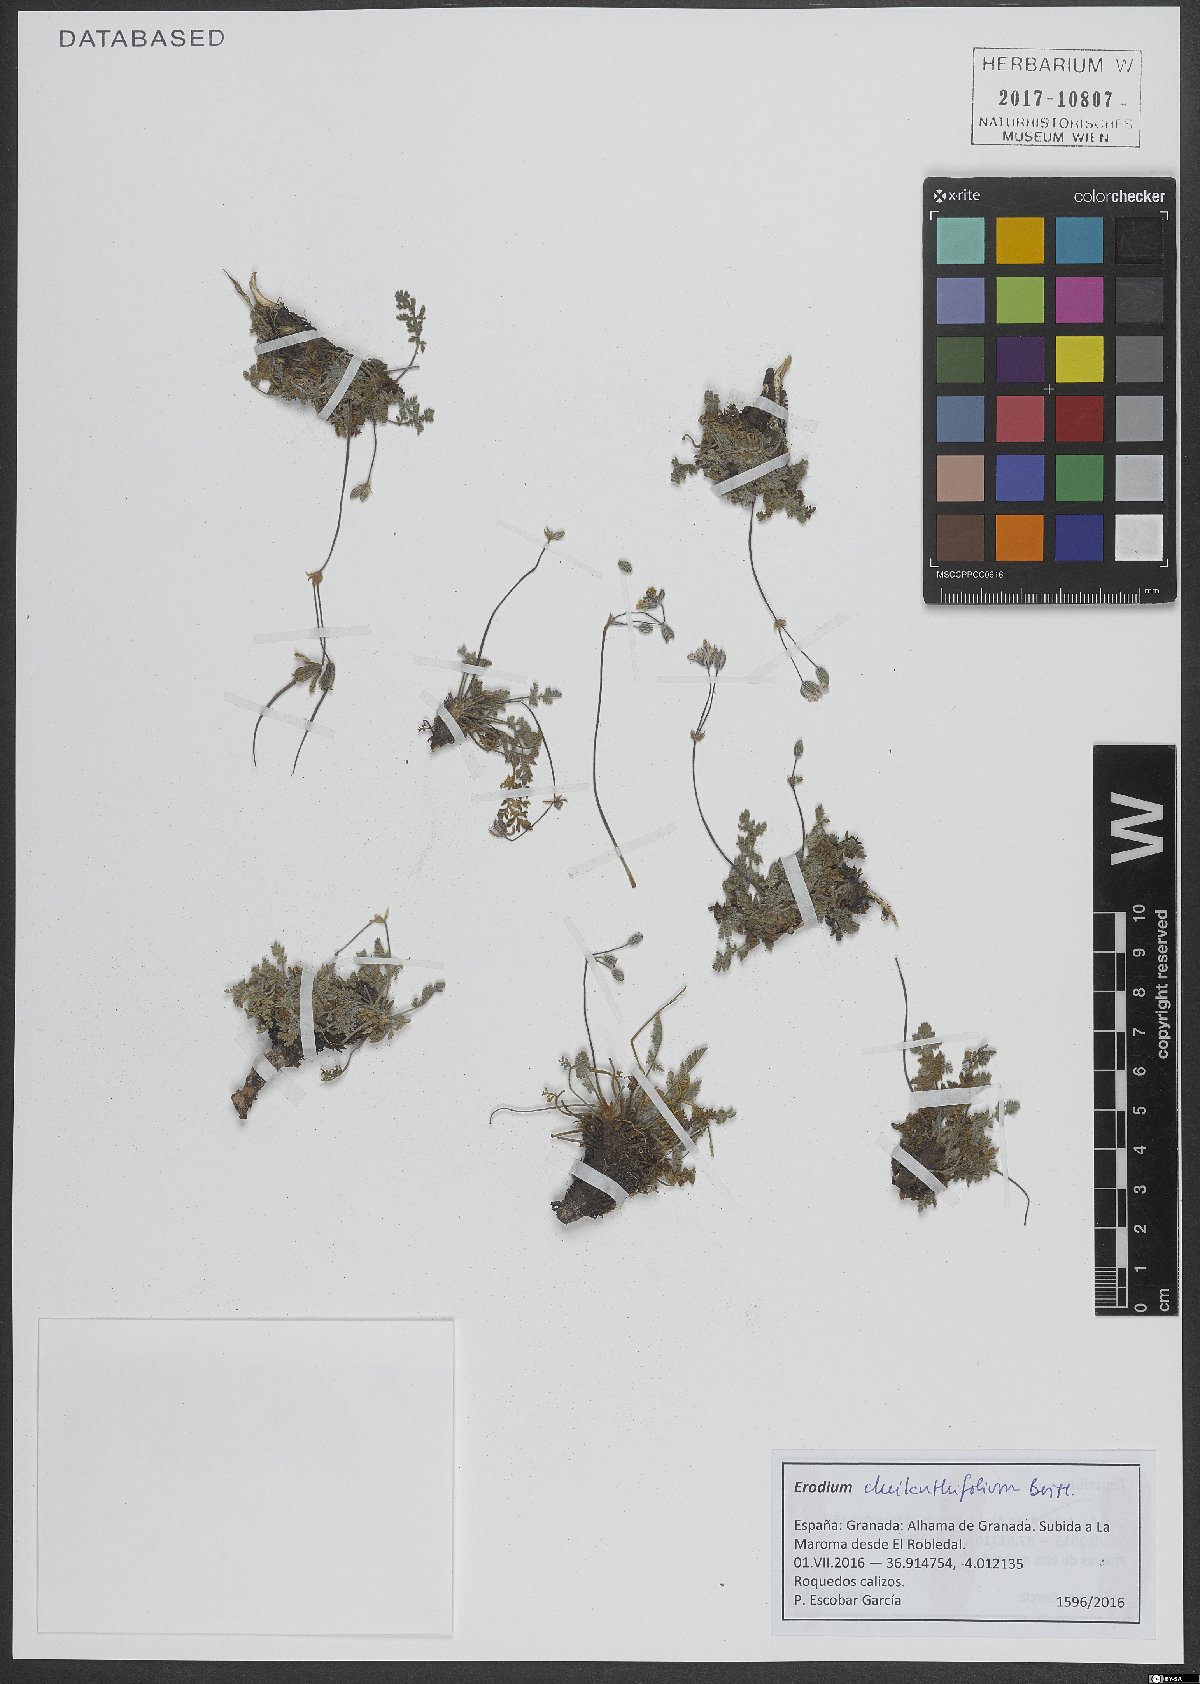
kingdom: Plantae
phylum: Tracheophyta
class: Magnoliopsida
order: Geraniales
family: Geraniaceae
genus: Erodium
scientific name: Erodium cheilanthifolium
